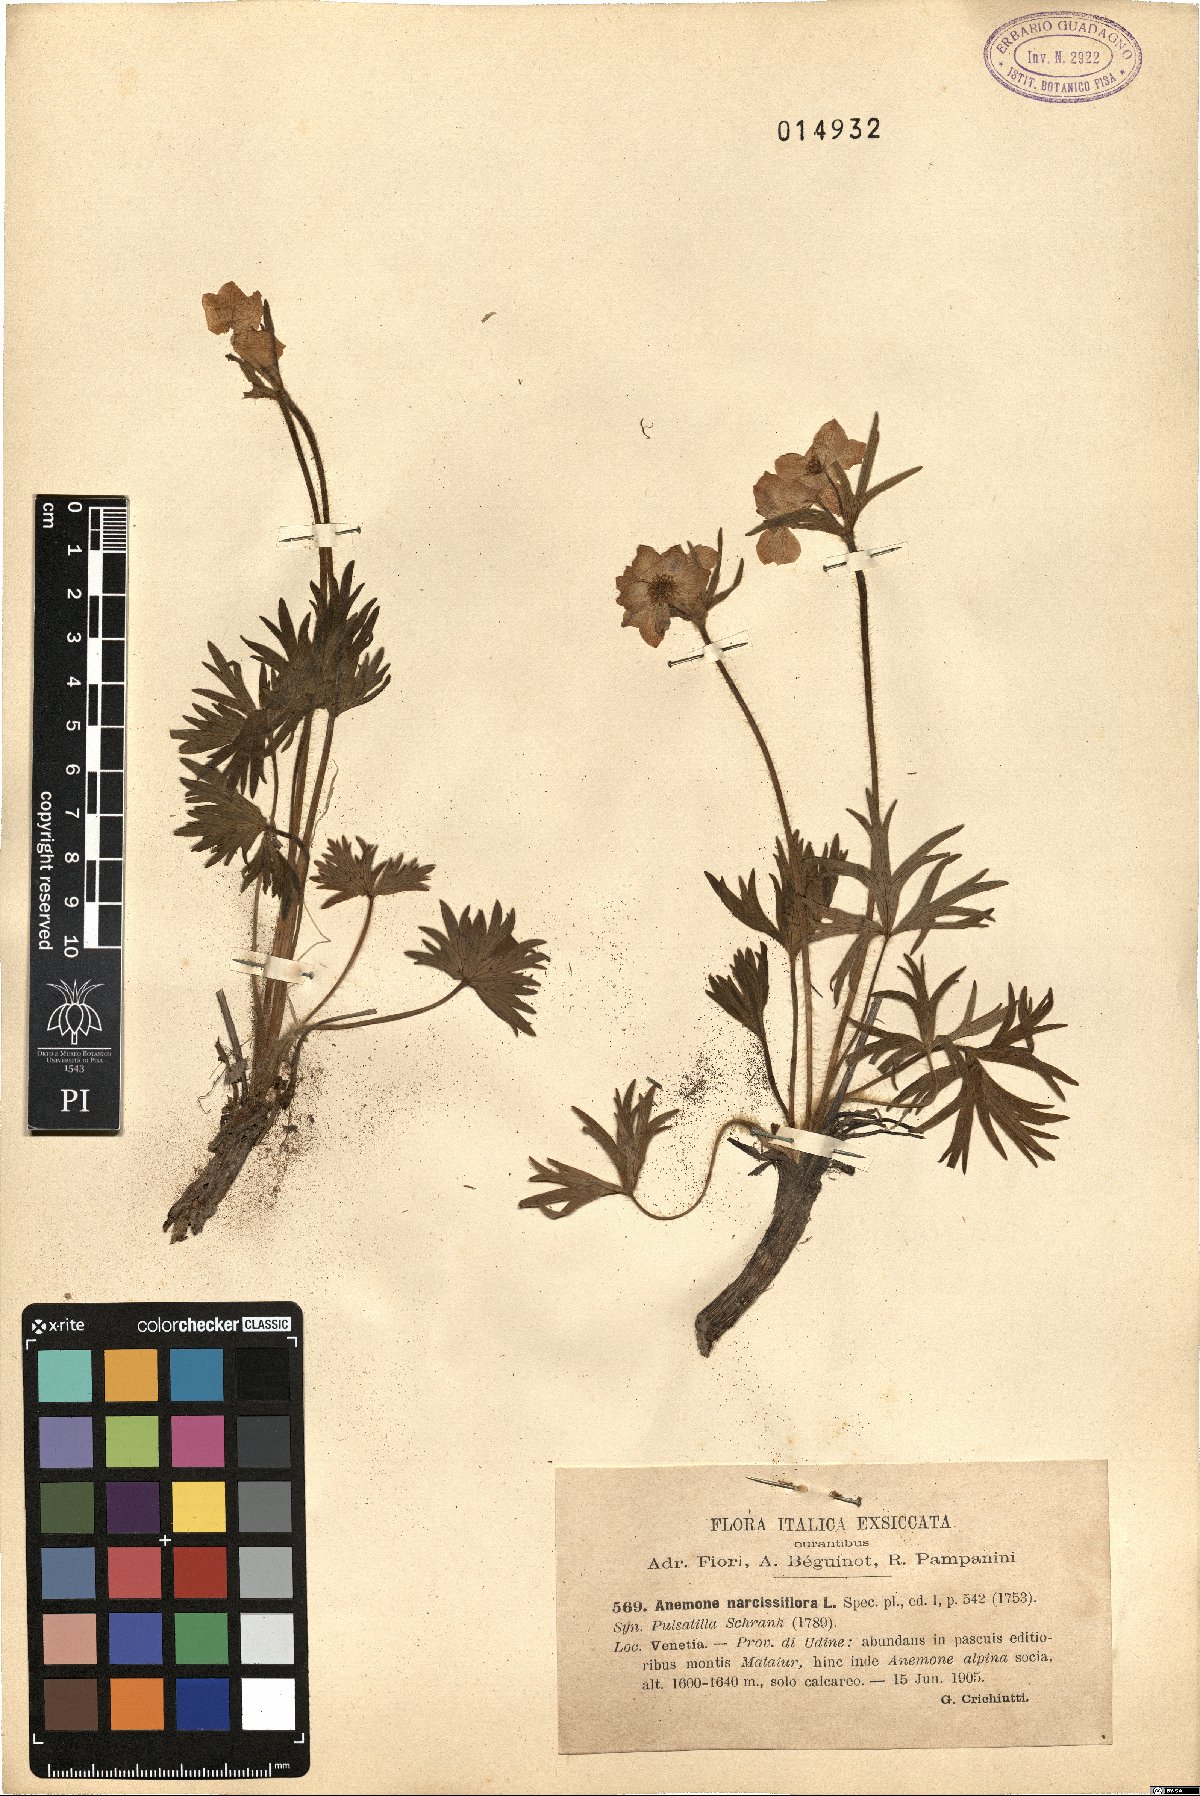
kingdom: Plantae
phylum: Tracheophyta
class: Magnoliopsida
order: Ranunculales
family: Ranunculaceae
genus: Anemonastrum
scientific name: Anemonastrum narcissiflorum
